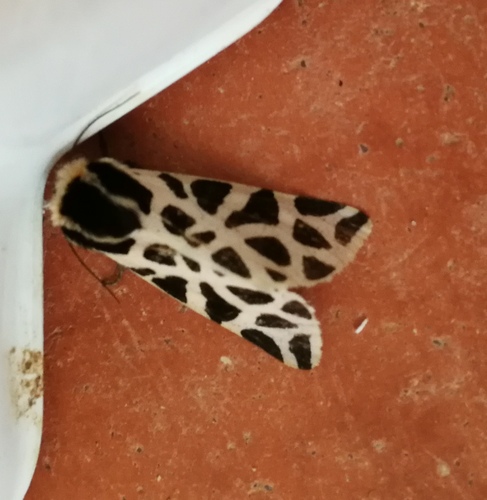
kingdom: Animalia
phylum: Arthropoda
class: Insecta
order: Lepidoptera
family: Erebidae
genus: Cymbalophora
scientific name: Cymbalophora pudica
